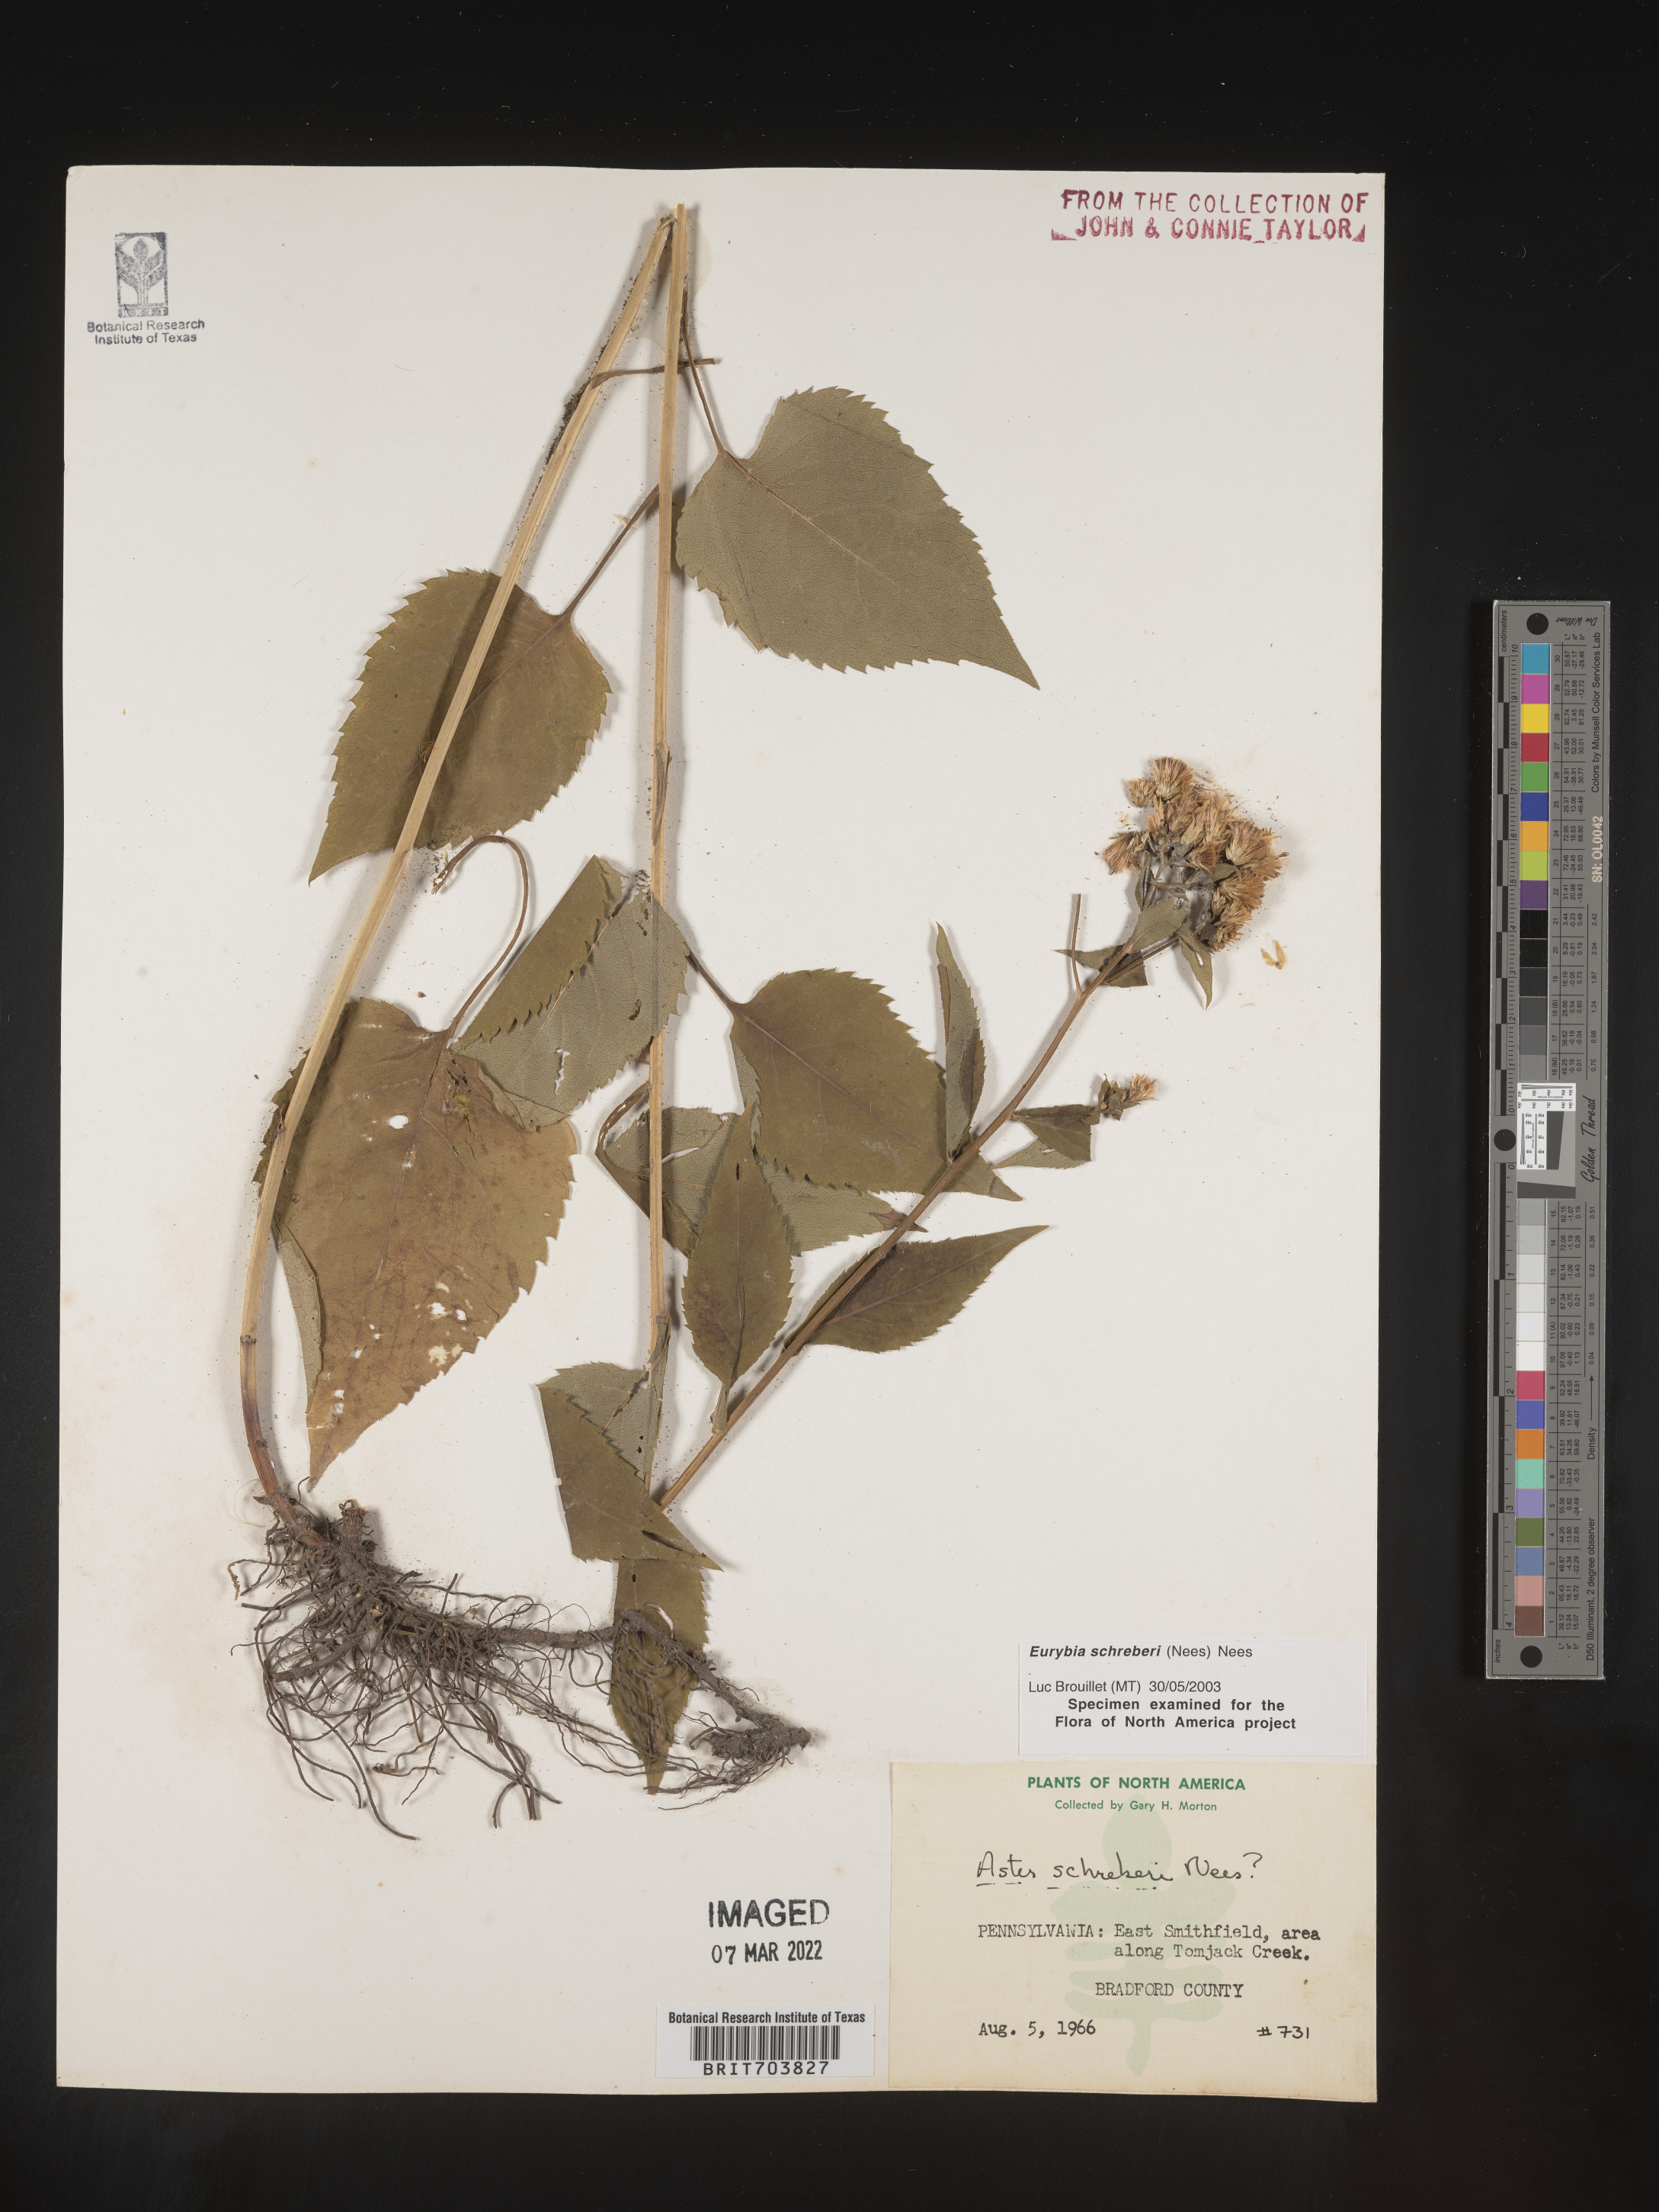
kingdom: Plantae
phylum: Tracheophyta
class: Magnoliopsida
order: Asterales
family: Asteraceae
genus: Eurybia
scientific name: Eurybia schreberi
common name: Schreber's aster
